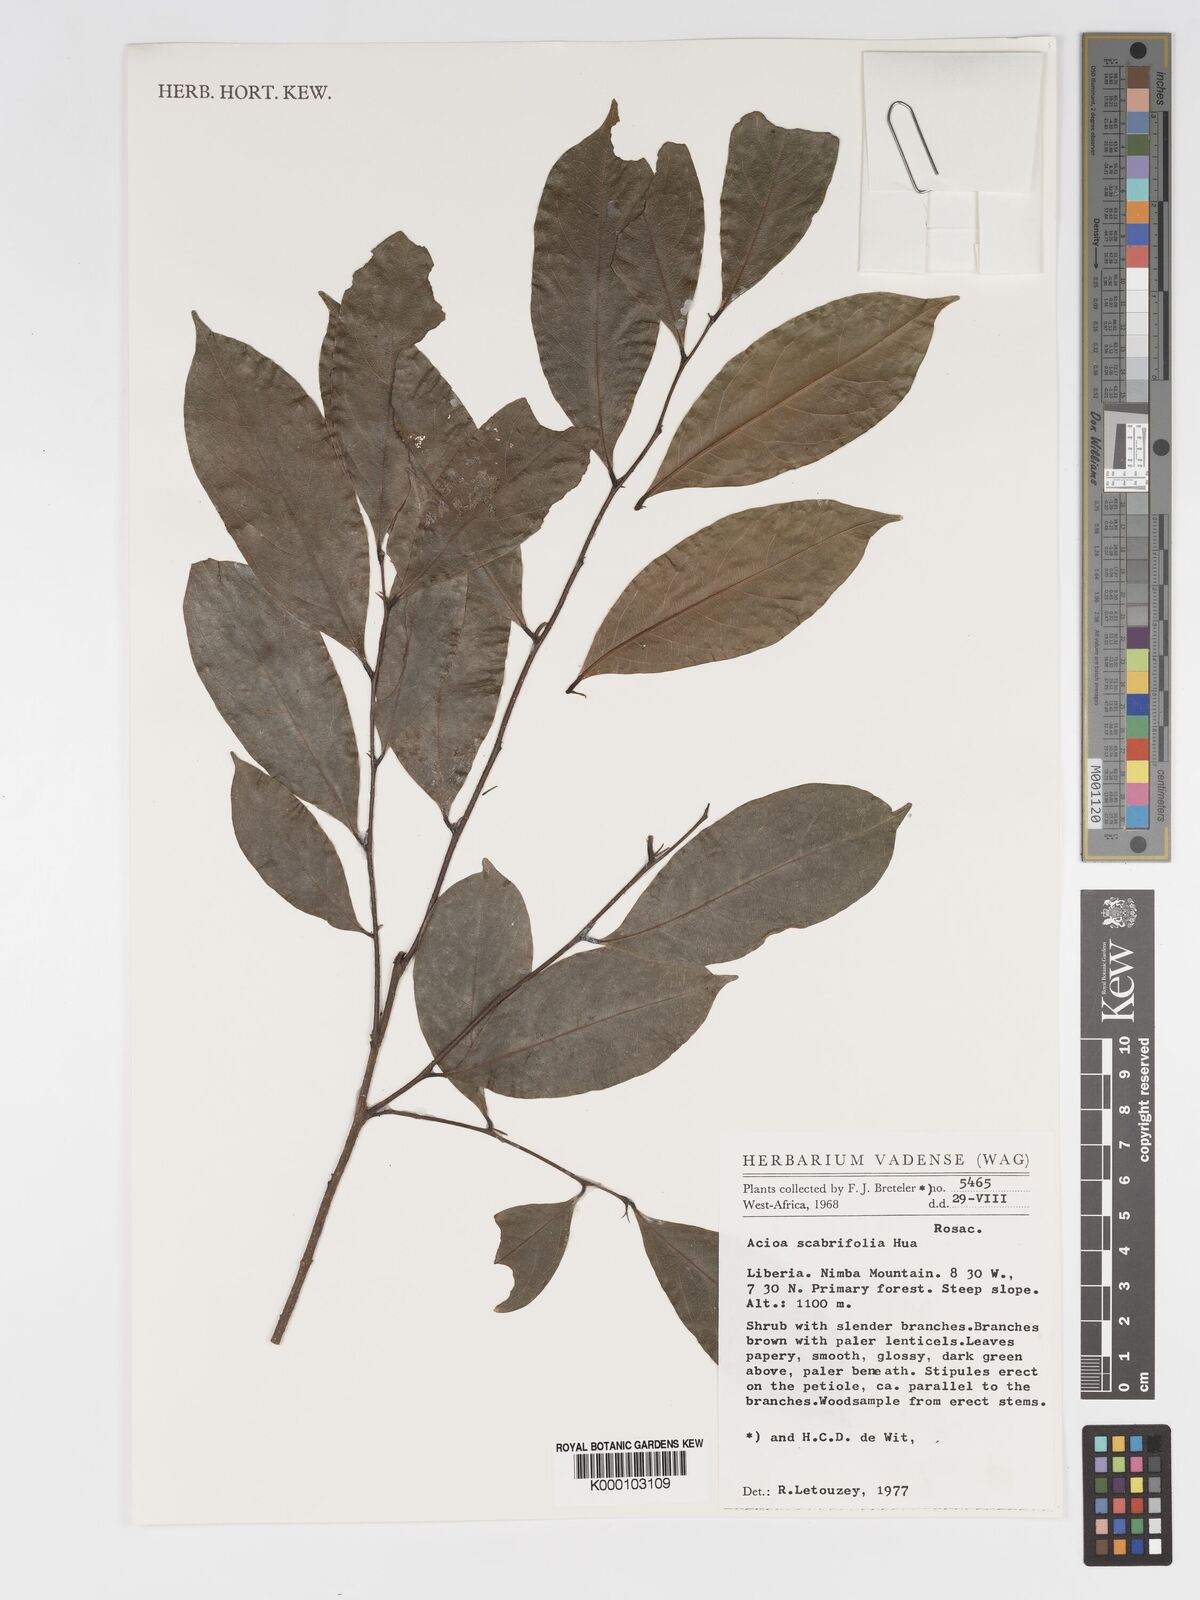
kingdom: Plantae
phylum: Tracheophyta
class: Magnoliopsida
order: Malpighiales
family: Chrysobalanaceae
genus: Dactyladenia
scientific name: Dactyladenia scabrifolia
